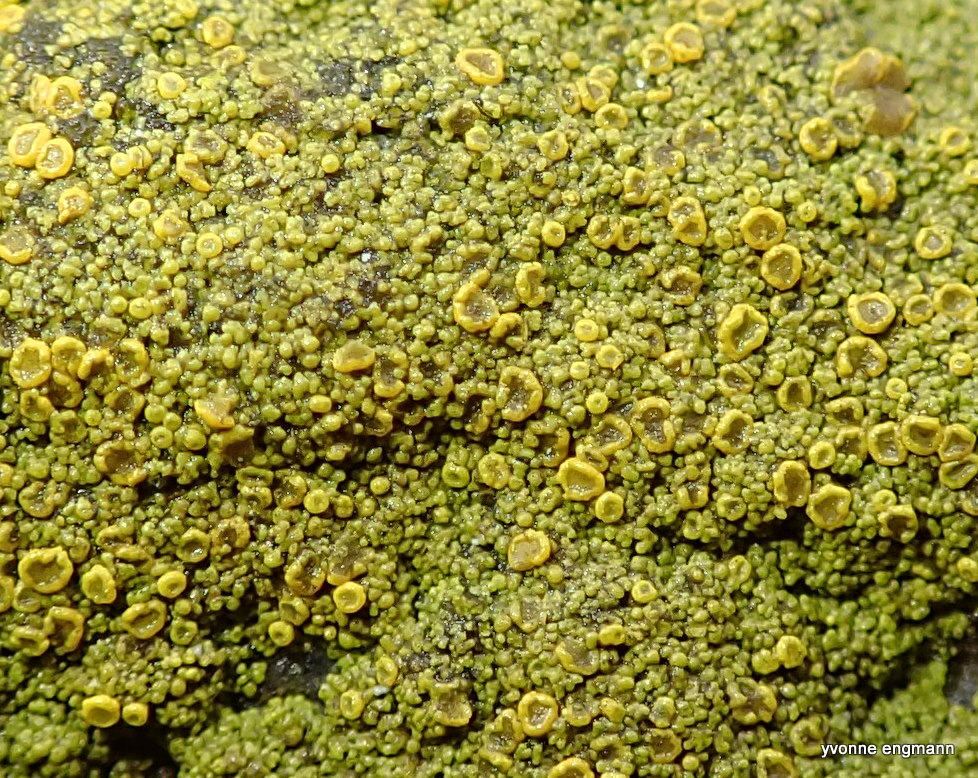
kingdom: Fungi
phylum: Ascomycota
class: Candelariomycetes
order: Candelariales
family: Candelariaceae
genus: Candelariella
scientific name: Candelariella vitellina
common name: almindelig æggeblommelav
